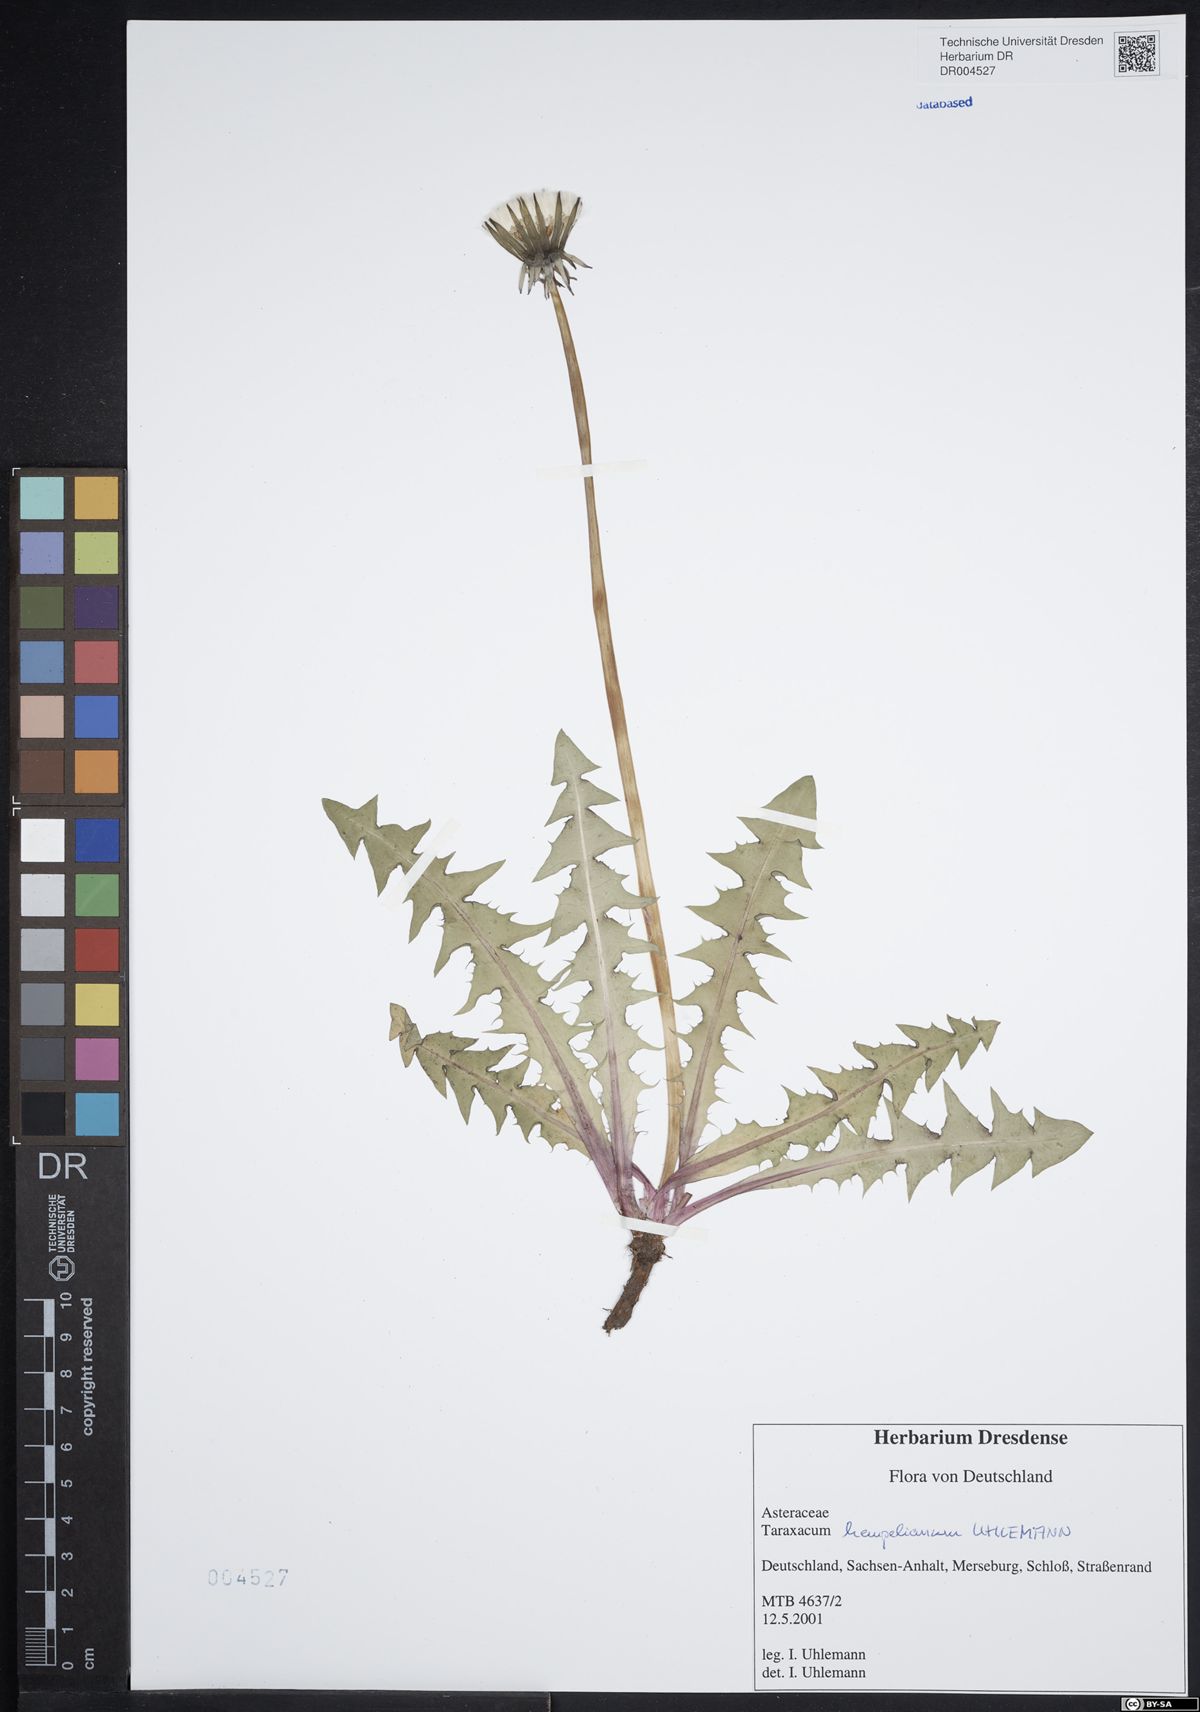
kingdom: Plantae
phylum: Tracheophyta
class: Magnoliopsida
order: Asterales
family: Asteraceae
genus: Taraxacum
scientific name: Taraxacum hempelianum
